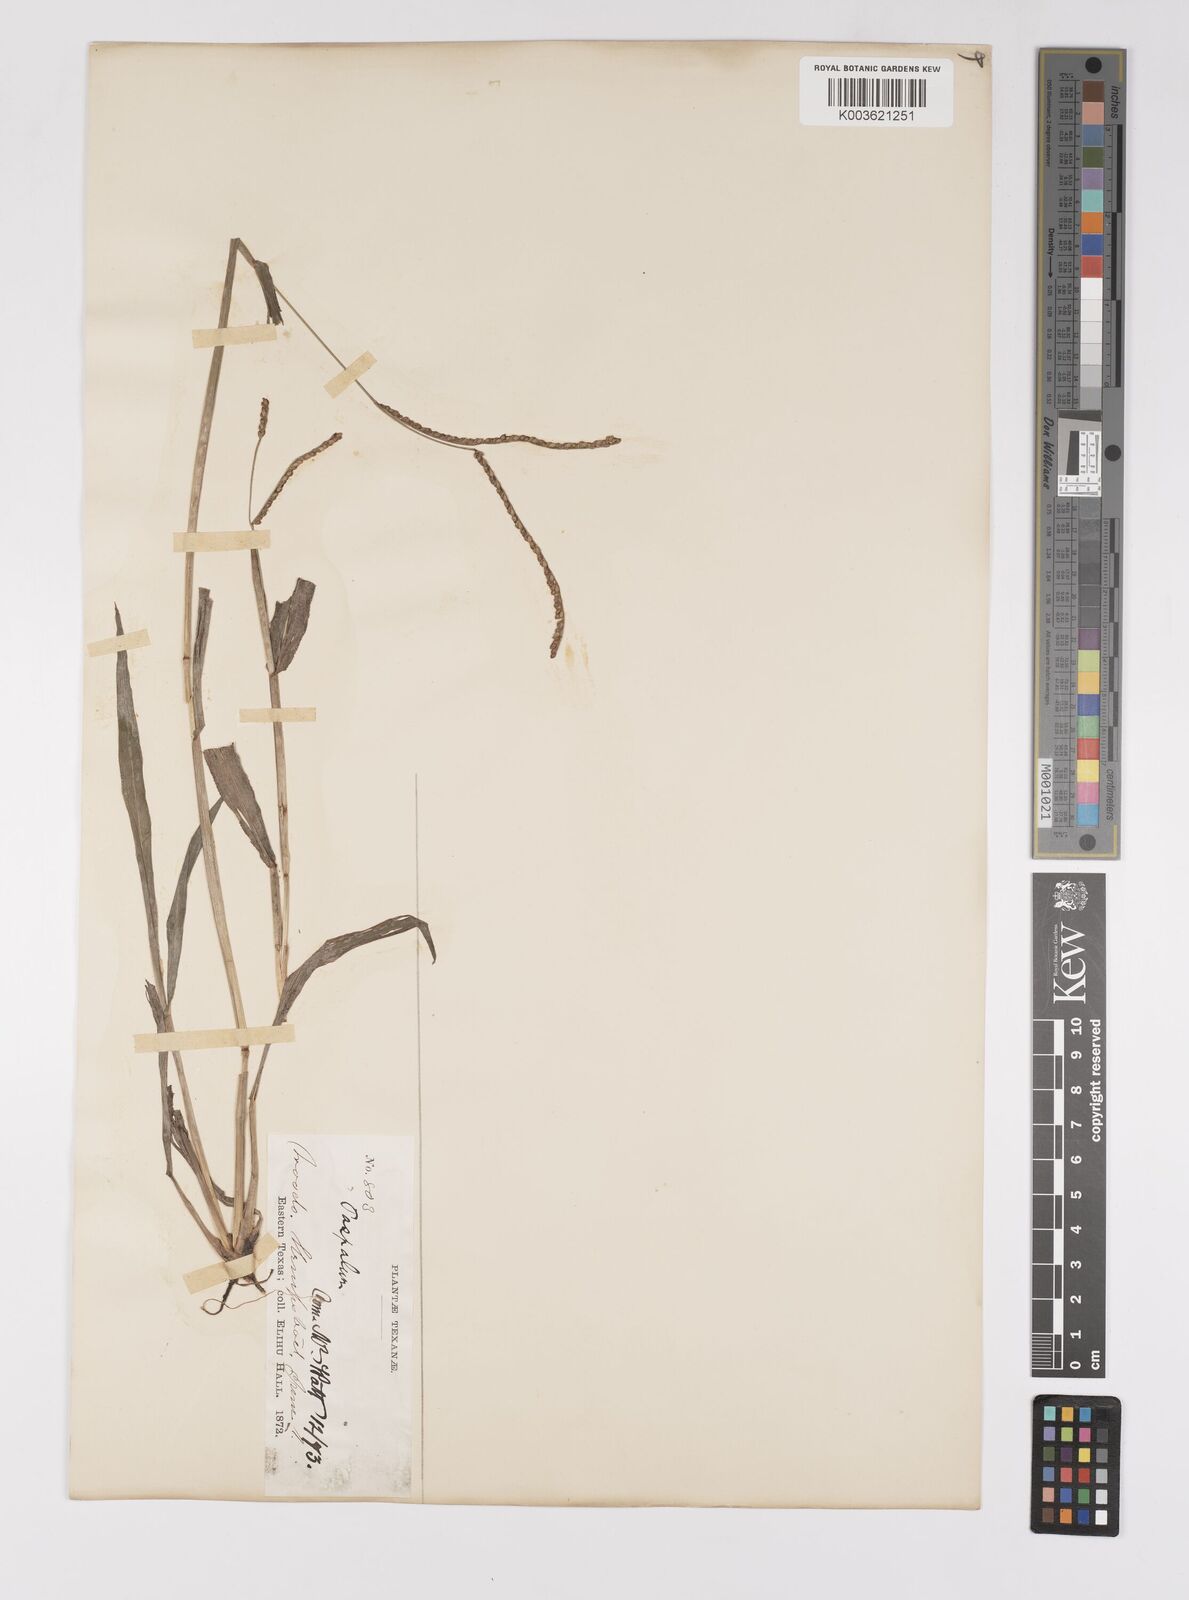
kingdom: Plantae
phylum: Tracheophyta
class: Liliopsida
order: Poales
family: Poaceae
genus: Paspalum
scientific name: Paspalum langei
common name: Rusty-seed paspalum
